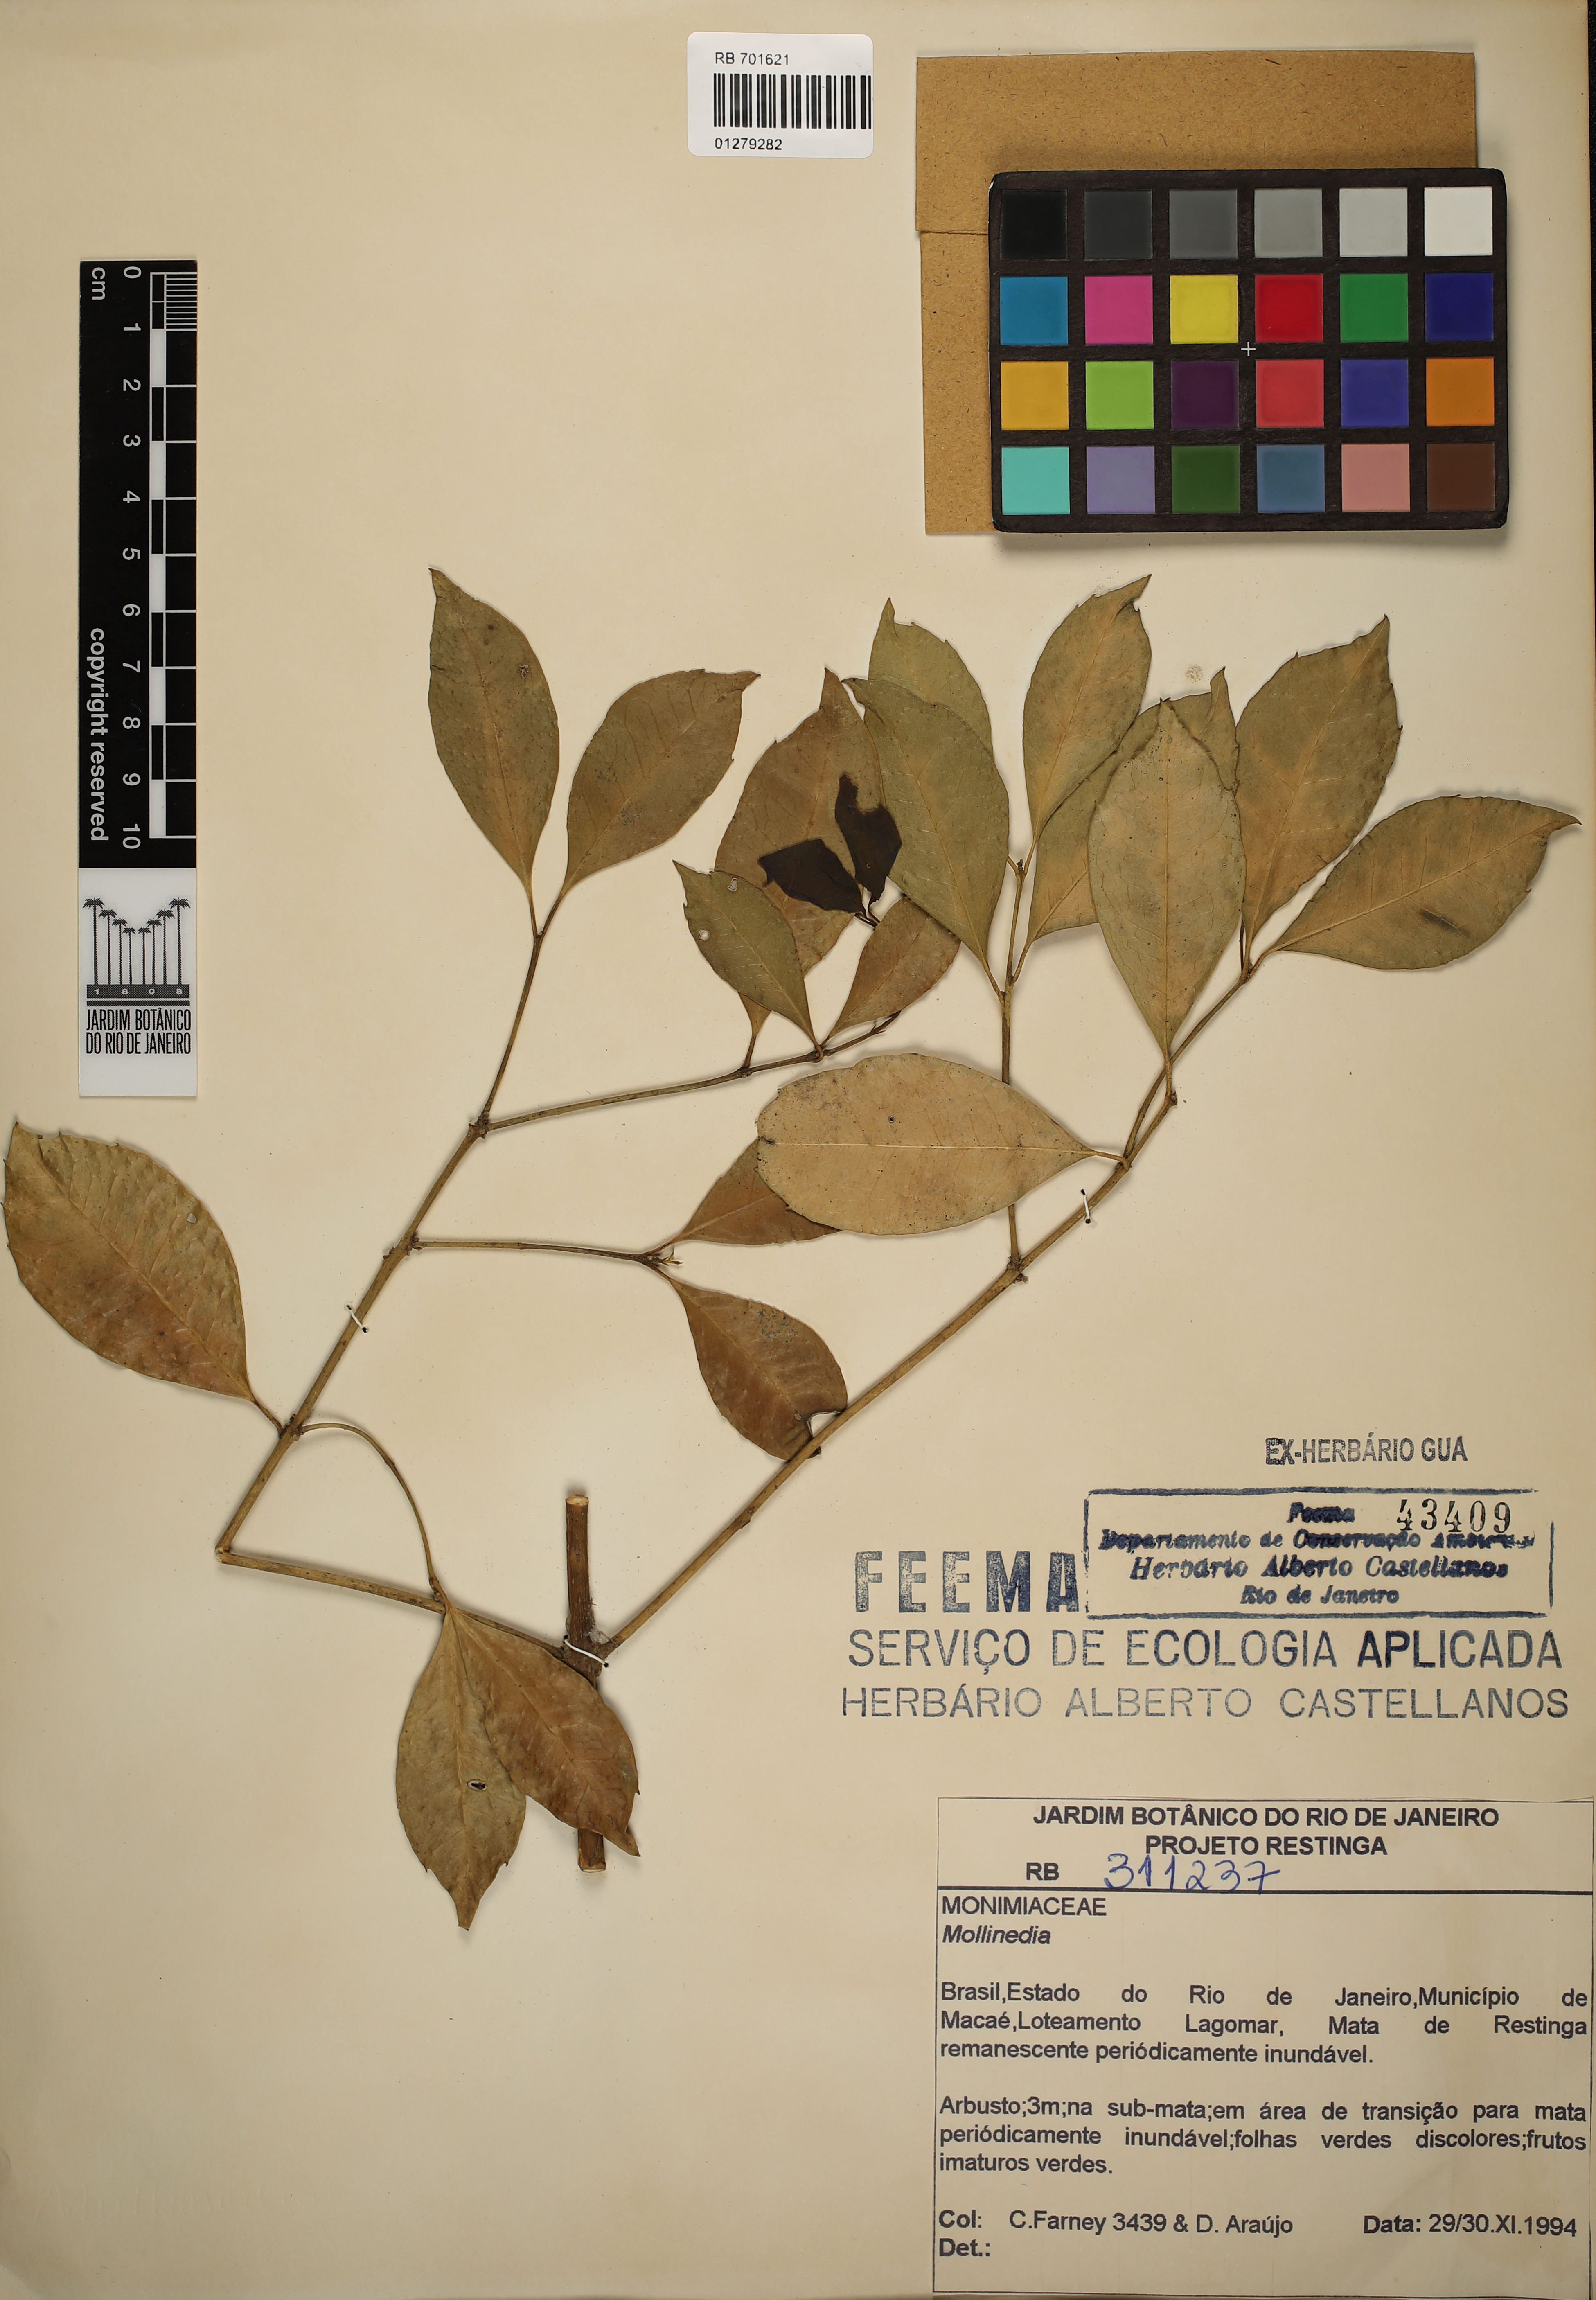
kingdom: Plantae
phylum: Tracheophyta
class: Magnoliopsida
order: Laurales
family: Monimiaceae
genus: Mollinedia
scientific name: Mollinedia
